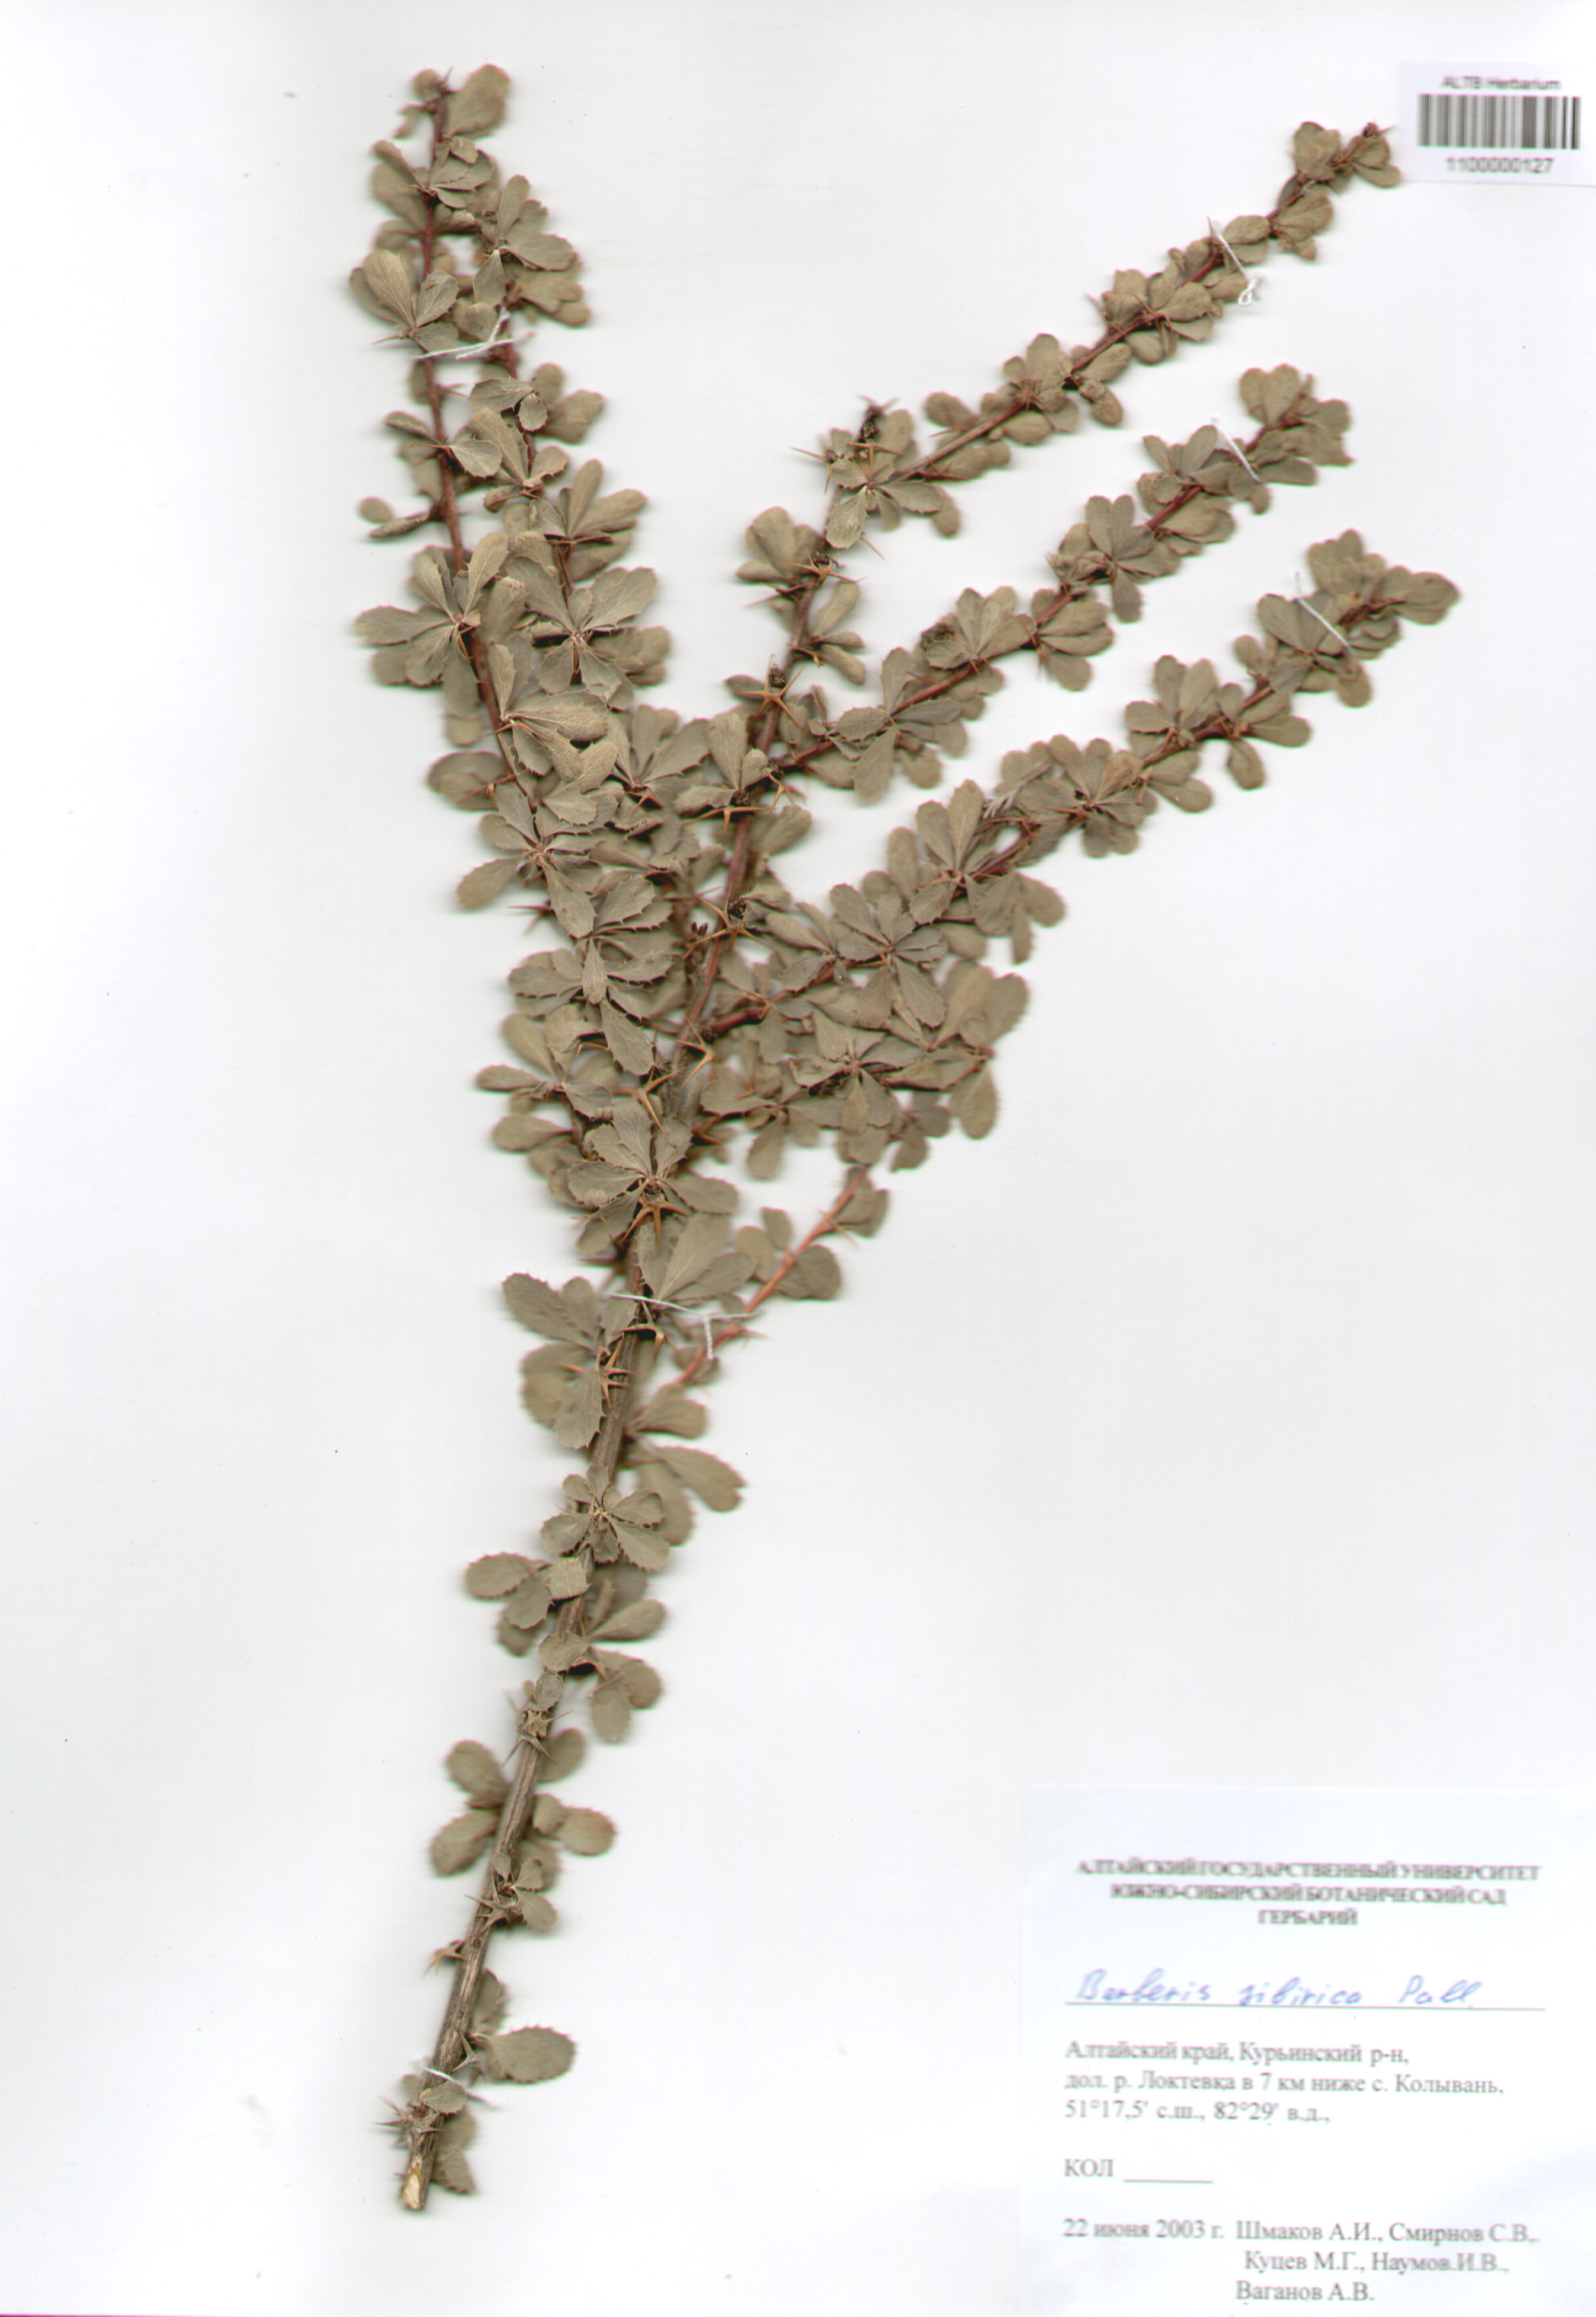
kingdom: Plantae
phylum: Tracheophyta
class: Magnoliopsida
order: Ranunculales
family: Berberidaceae
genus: Berberis
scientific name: Berberis sibirica
